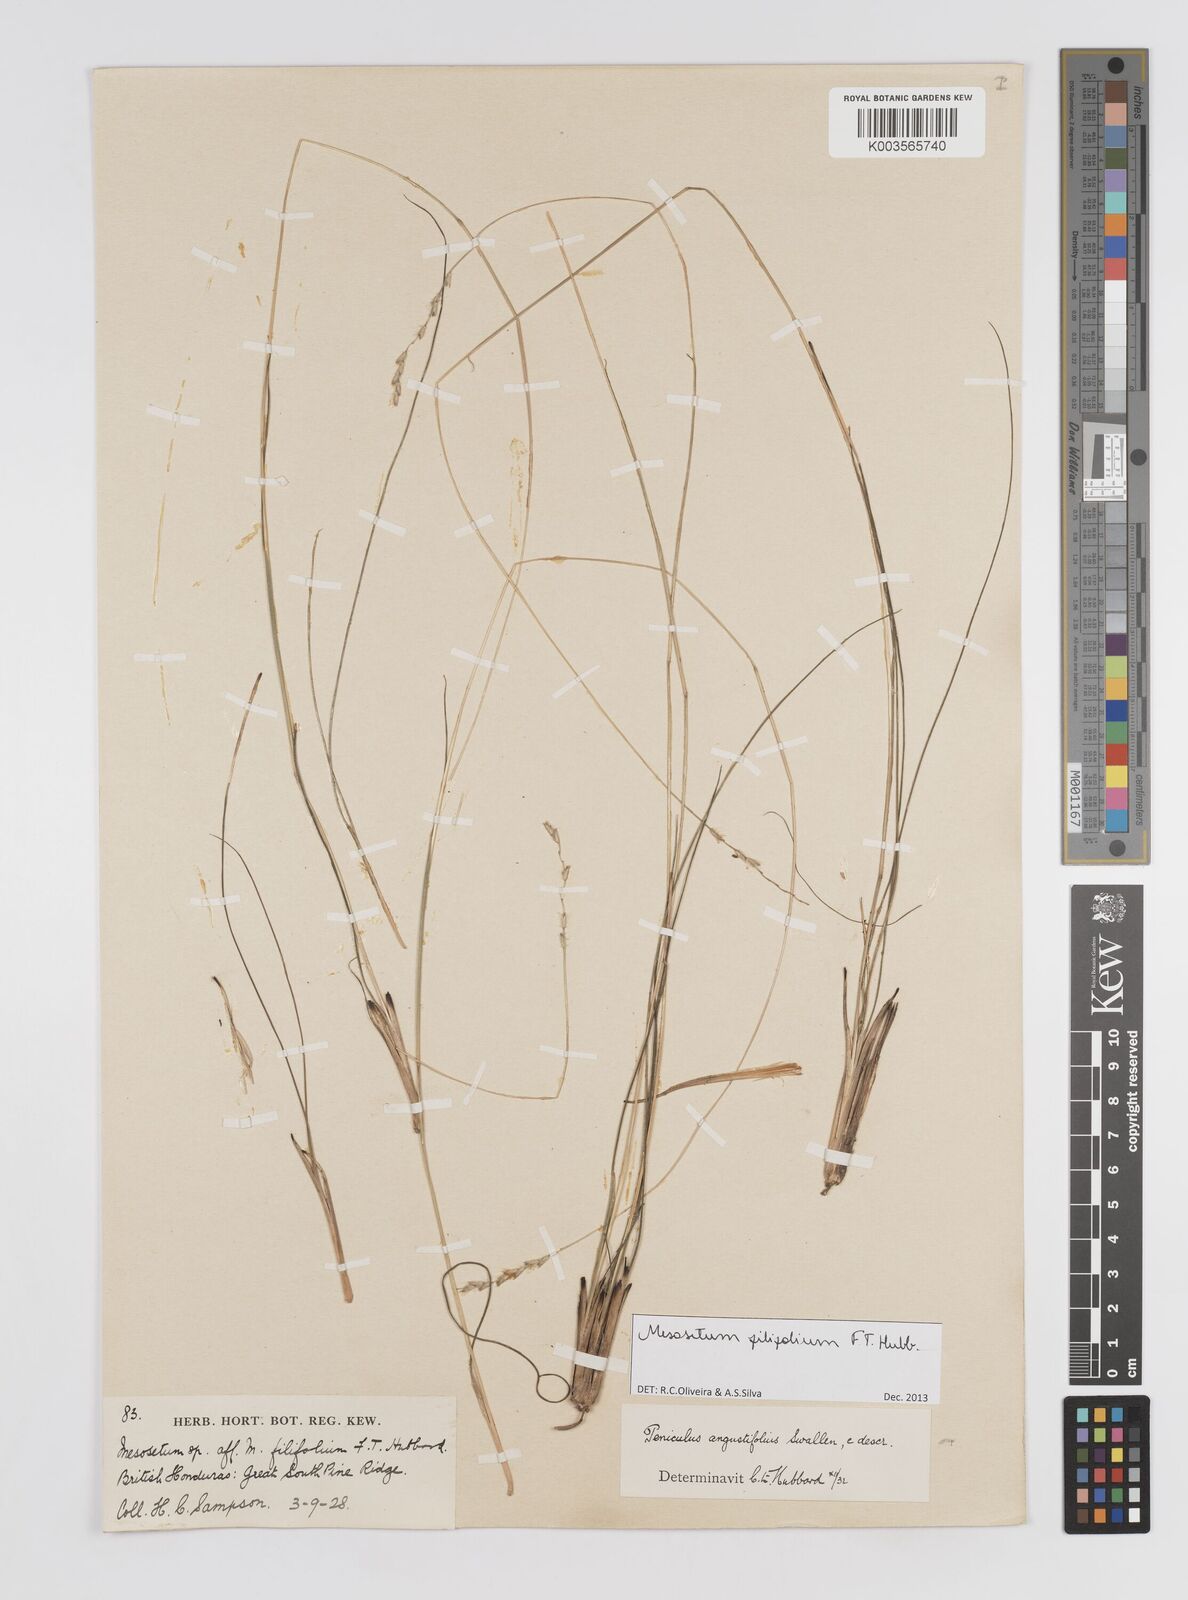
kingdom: Plantae
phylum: Tracheophyta
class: Liliopsida
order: Poales
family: Poaceae
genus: Mesosetum
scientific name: Mesosetum filifolium
